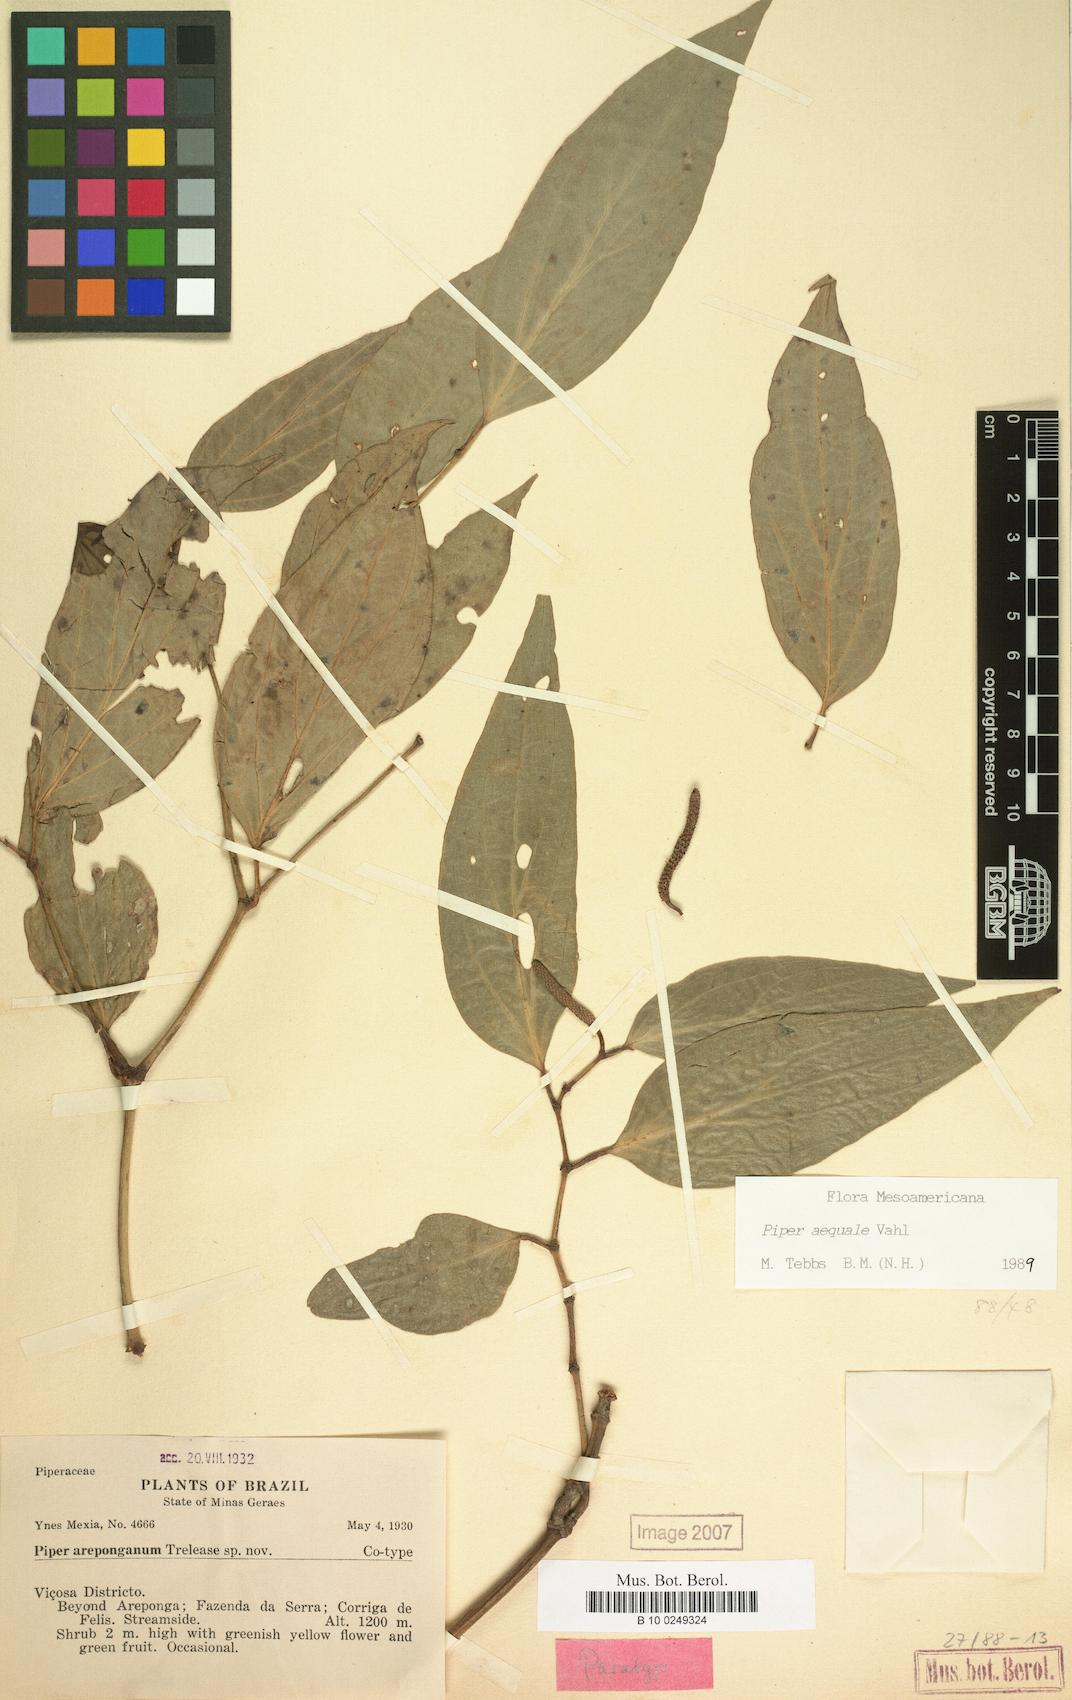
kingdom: Plantae
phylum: Tracheophyta
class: Magnoliopsida
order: Piperales
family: Piperaceae
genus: Piper
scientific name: Piper aequale
